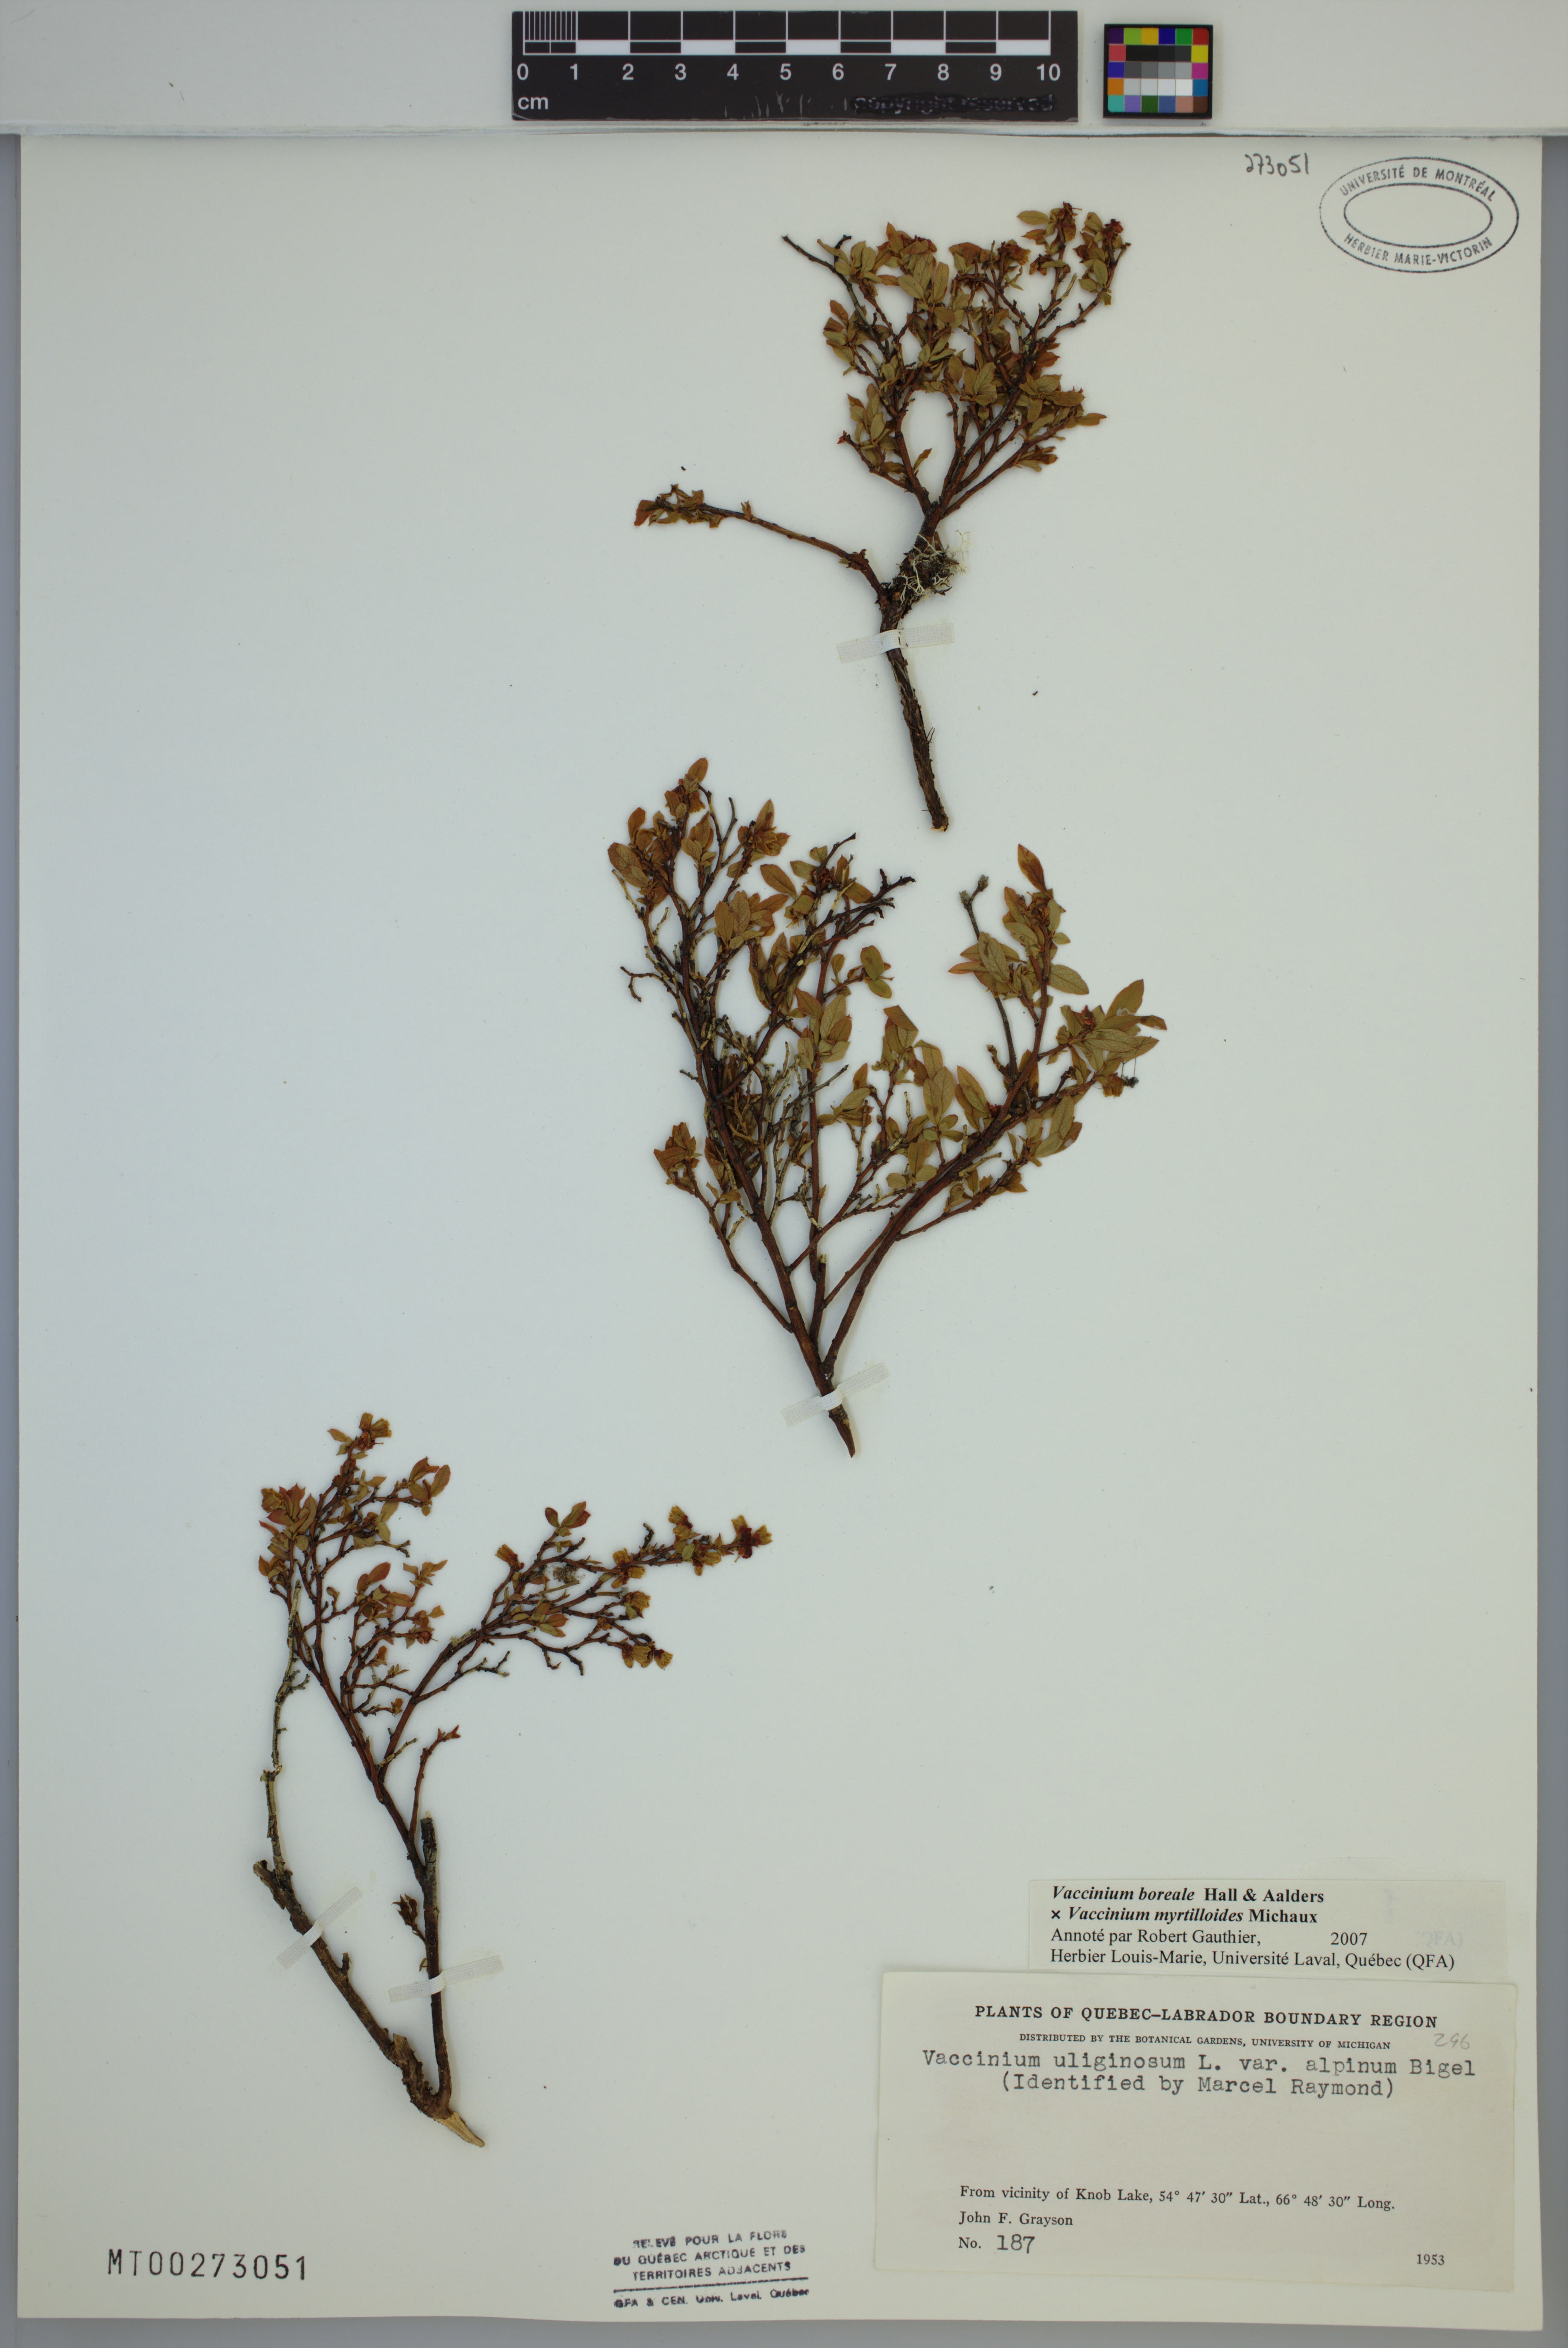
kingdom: Plantae
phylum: Tracheophyta
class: Magnoliopsida
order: Ericales
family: Ericaceae
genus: Vaccinium
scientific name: Vaccinium boreale
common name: Northern blueberry
